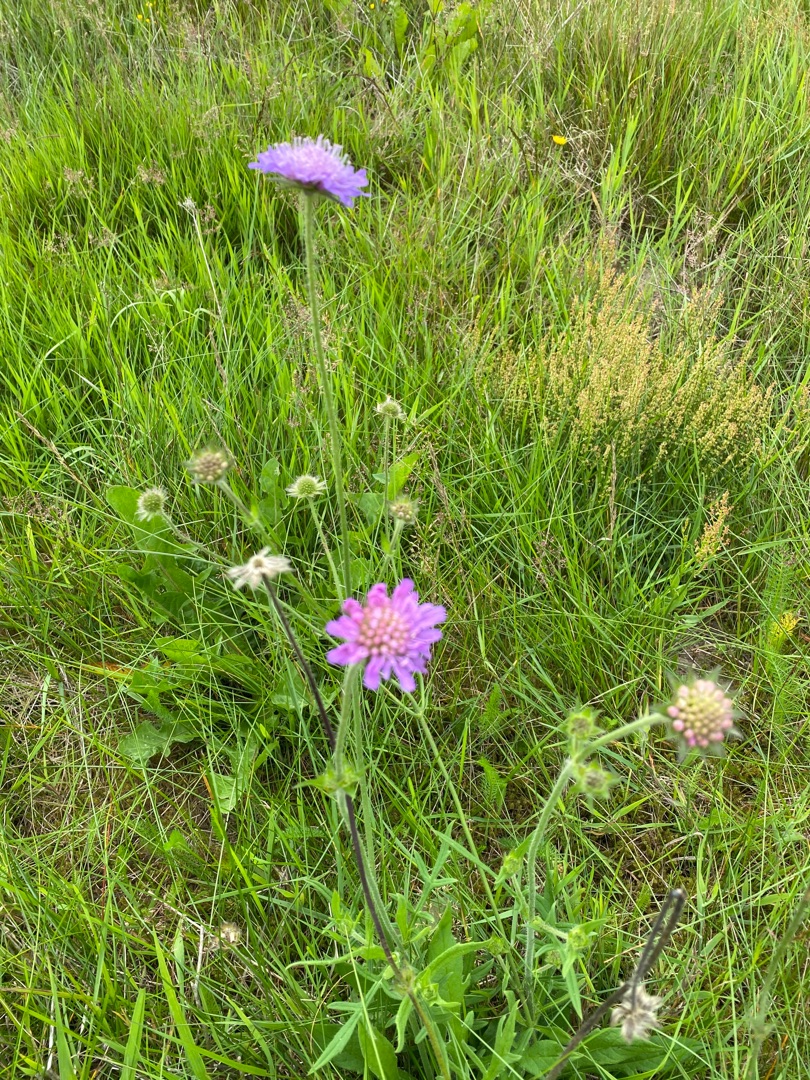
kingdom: Plantae
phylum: Tracheophyta
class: Magnoliopsida
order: Dipsacales
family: Caprifoliaceae
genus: Knautia
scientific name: Knautia arvensis
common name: Blåhat
